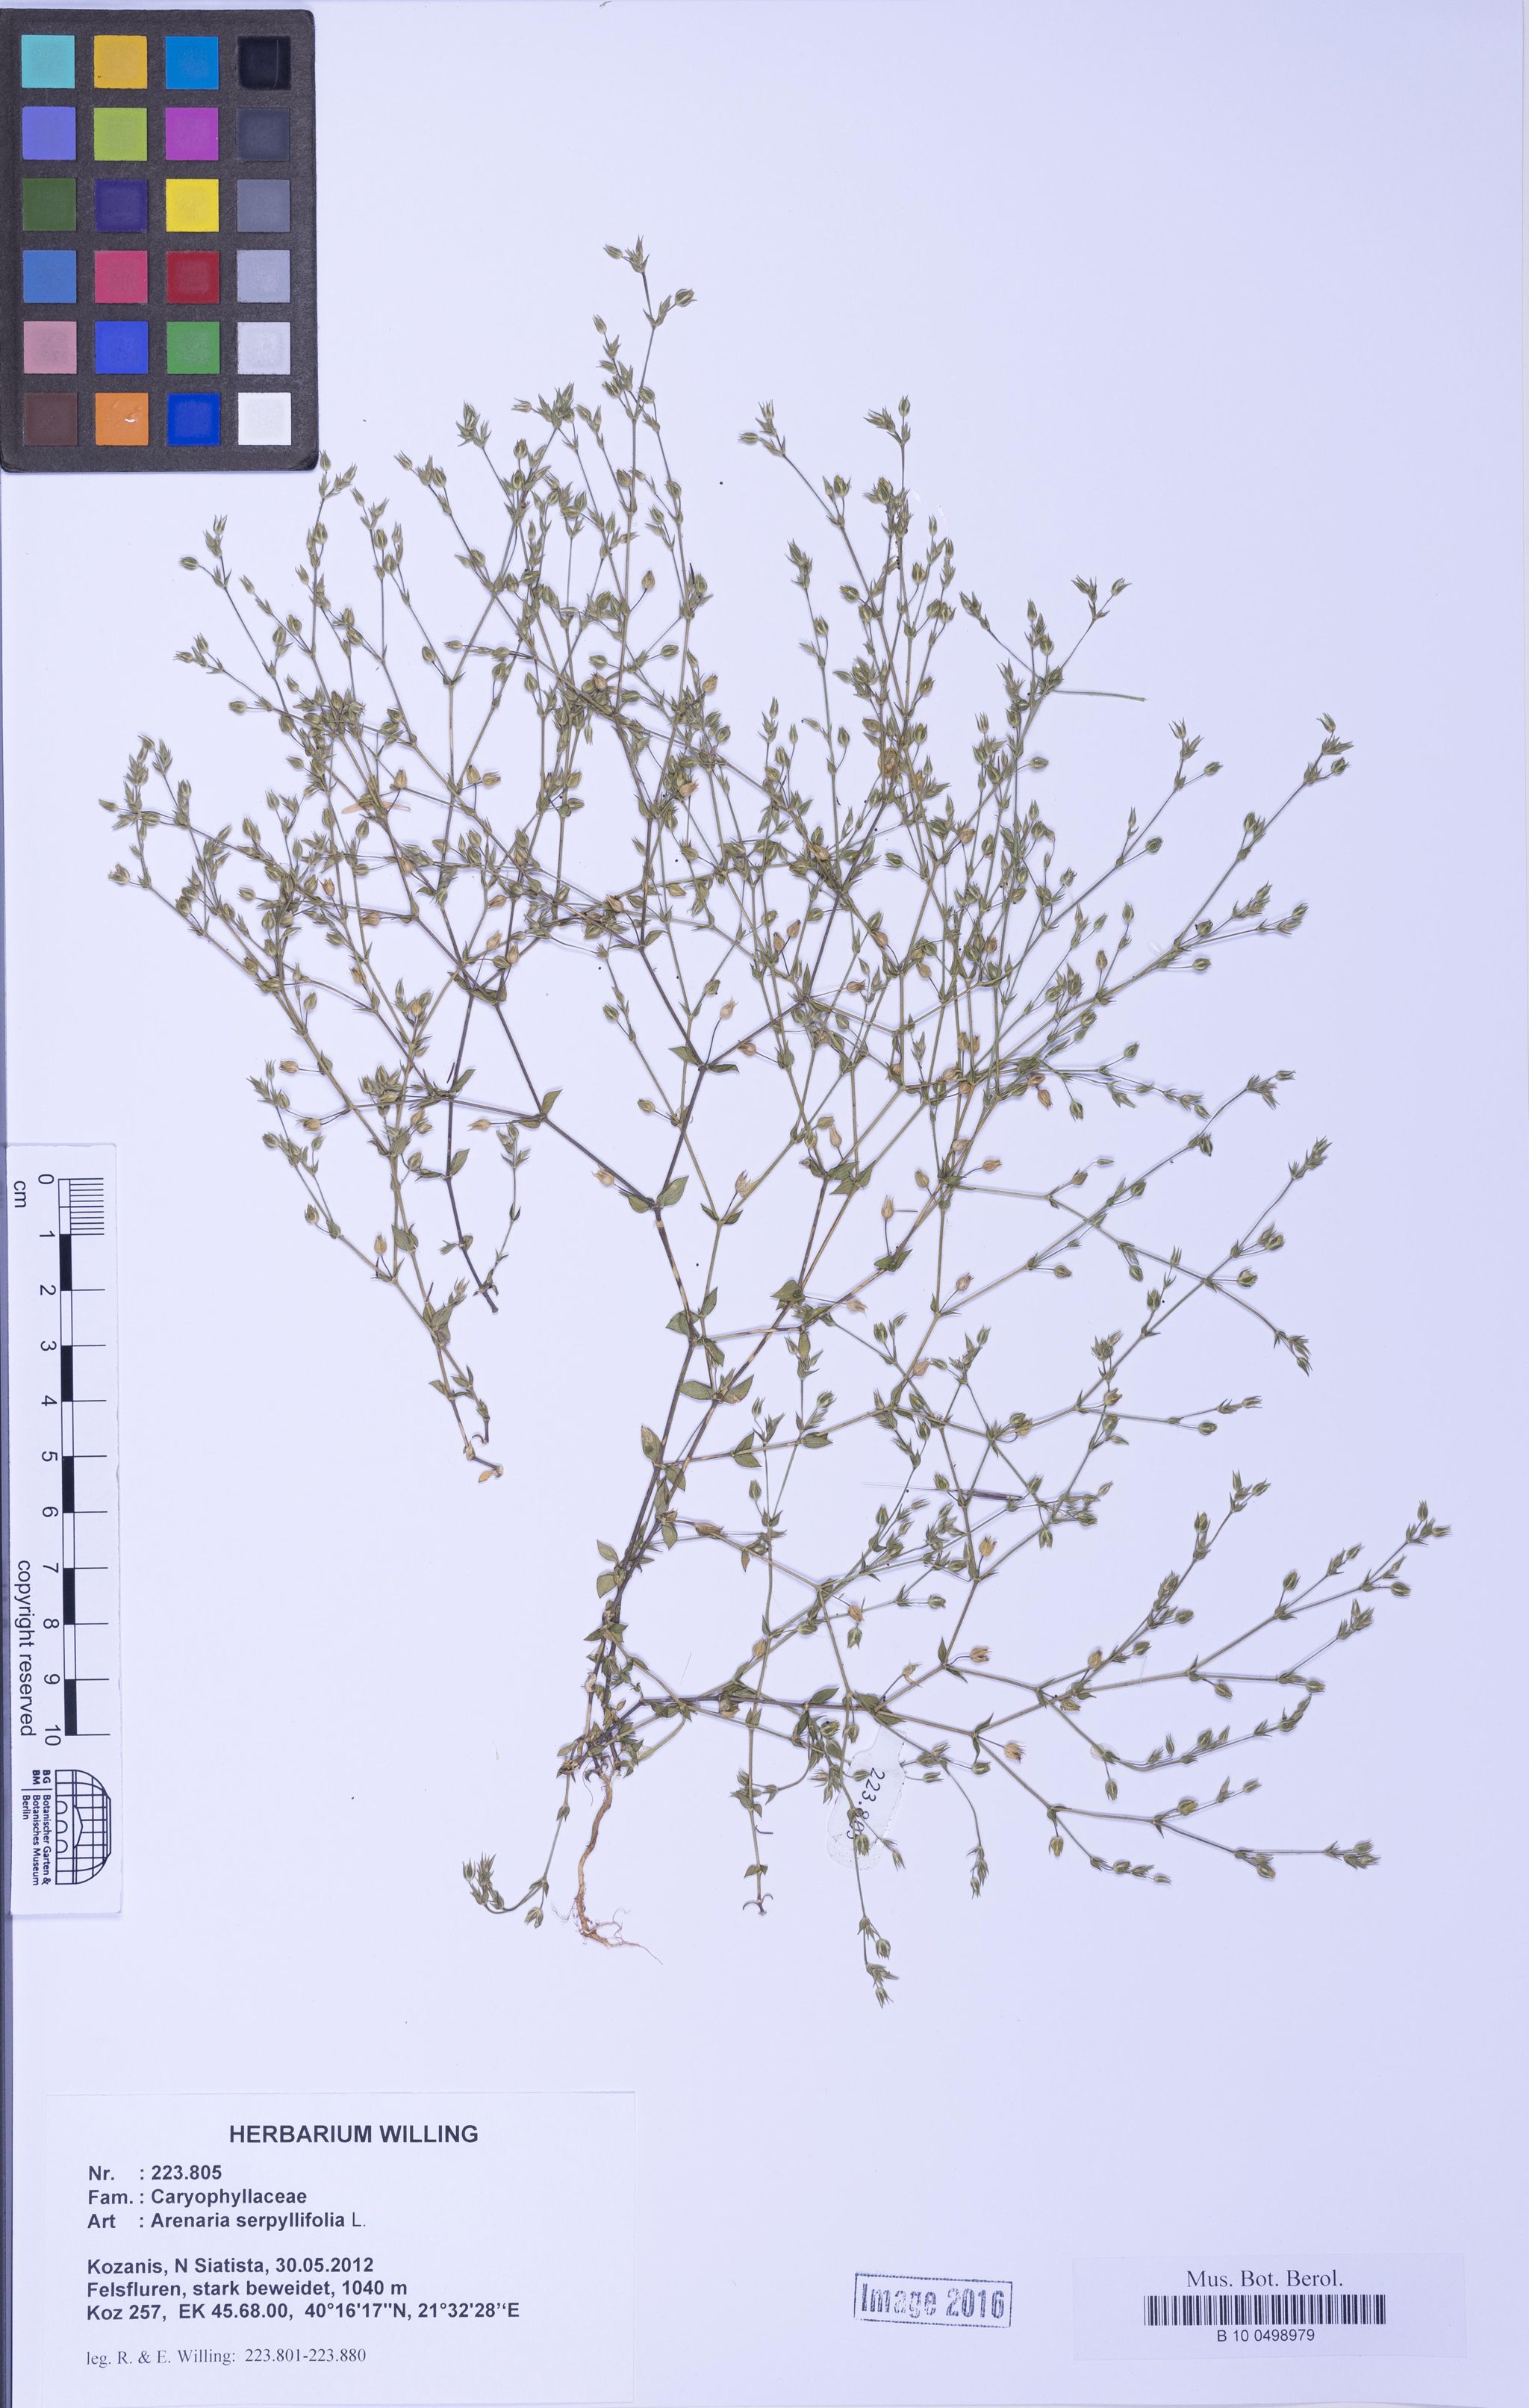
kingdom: Plantae
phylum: Tracheophyta
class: Magnoliopsida
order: Caryophyllales
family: Caryophyllaceae
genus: Arenaria
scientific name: Arenaria serpyllifolia
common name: Thyme-leaved sandwort
